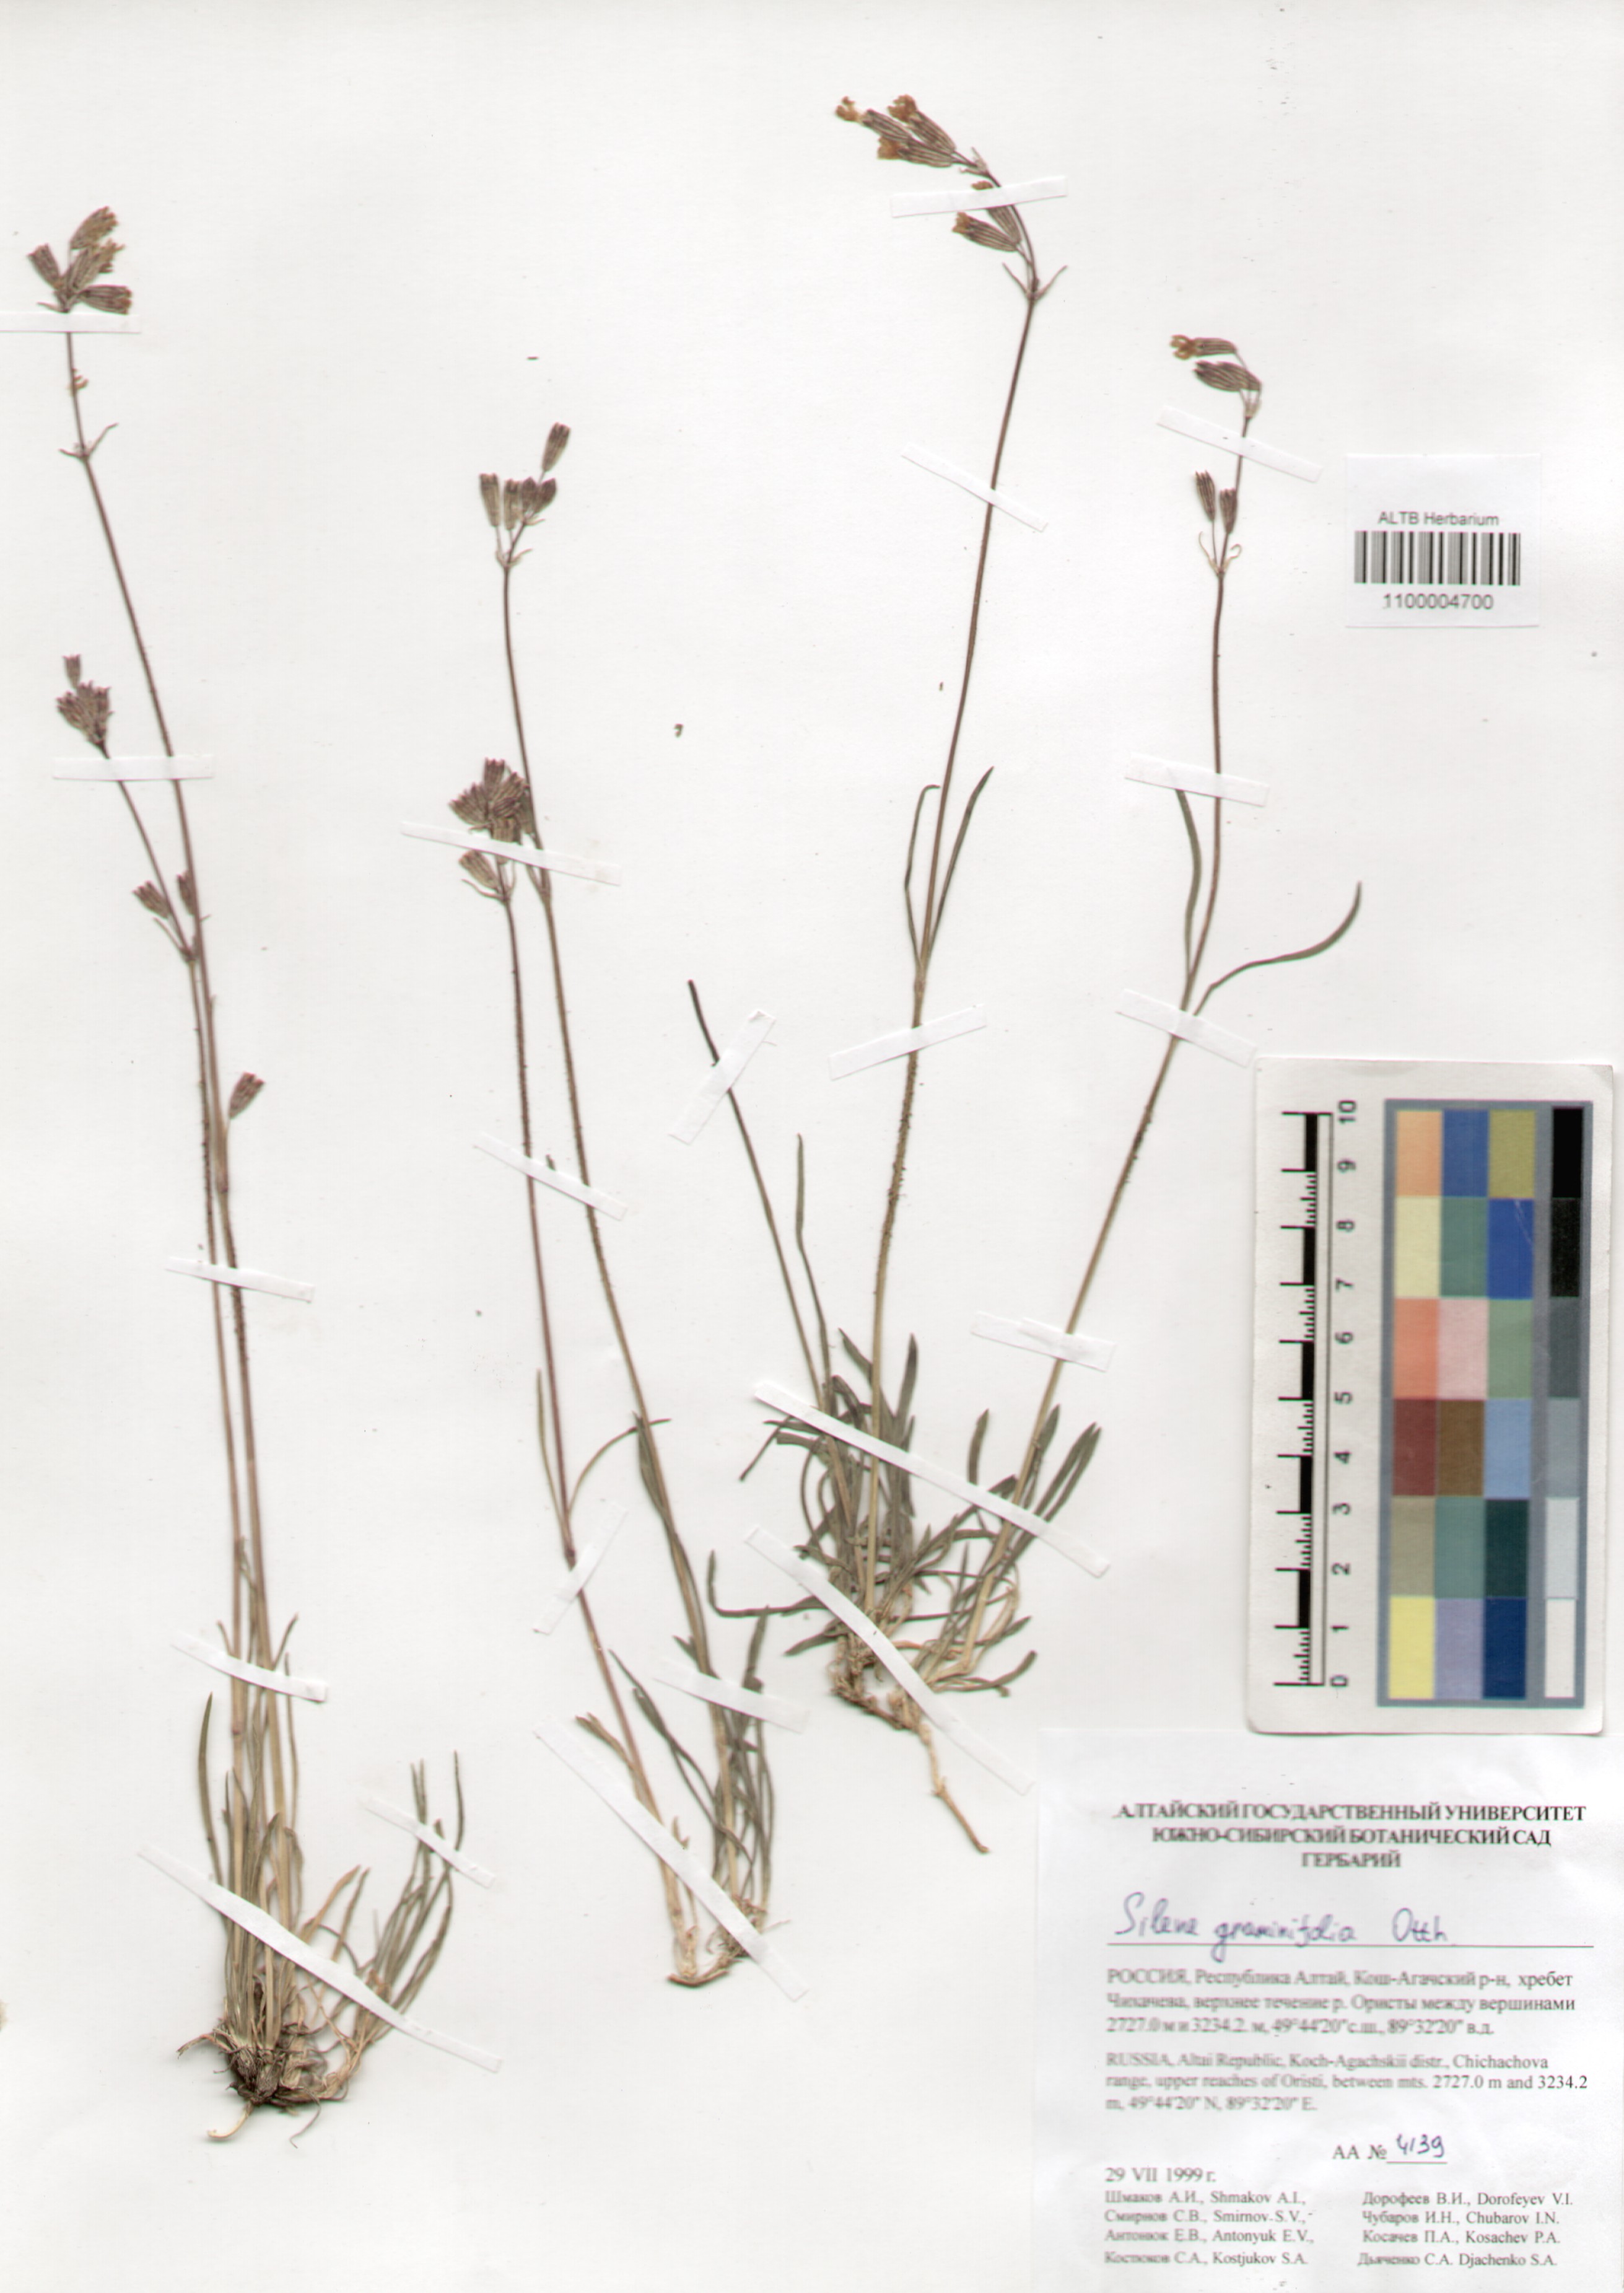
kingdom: Plantae
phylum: Tracheophyta
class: Magnoliopsida
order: Caryophyllales
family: Caryophyllaceae
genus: Silene
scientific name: Silene graminifolia
